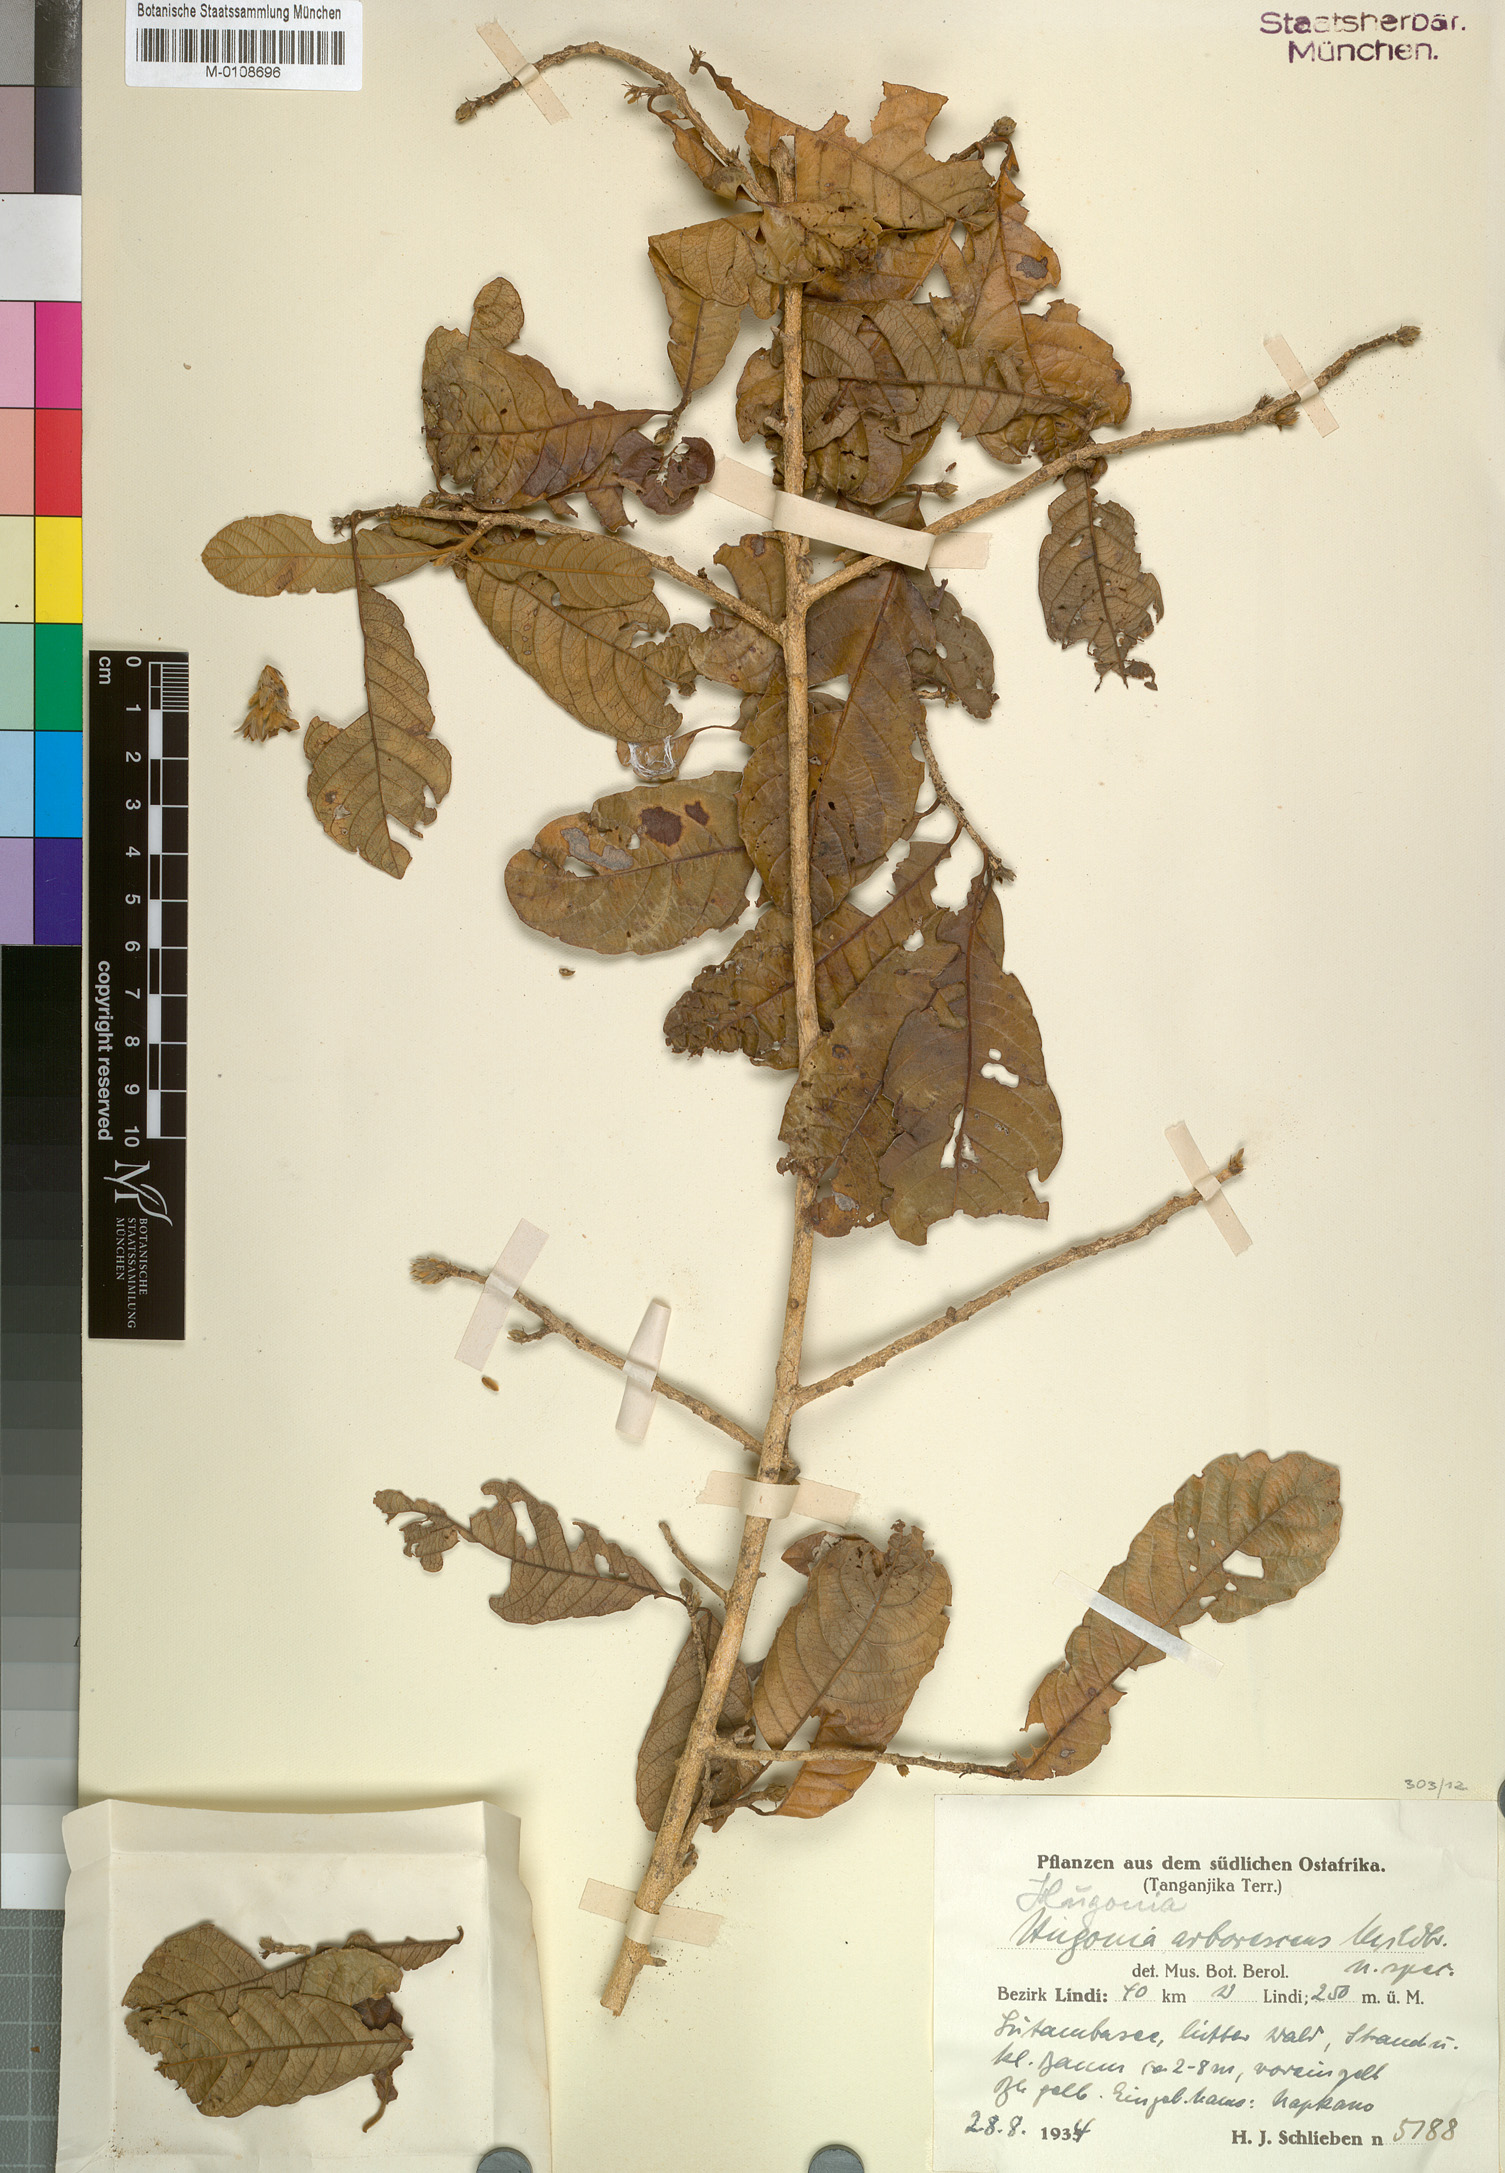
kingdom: Plantae
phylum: Tracheophyta
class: Magnoliopsida
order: Malpighiales
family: Linaceae
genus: Hugonia
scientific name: Hugonia busseana
